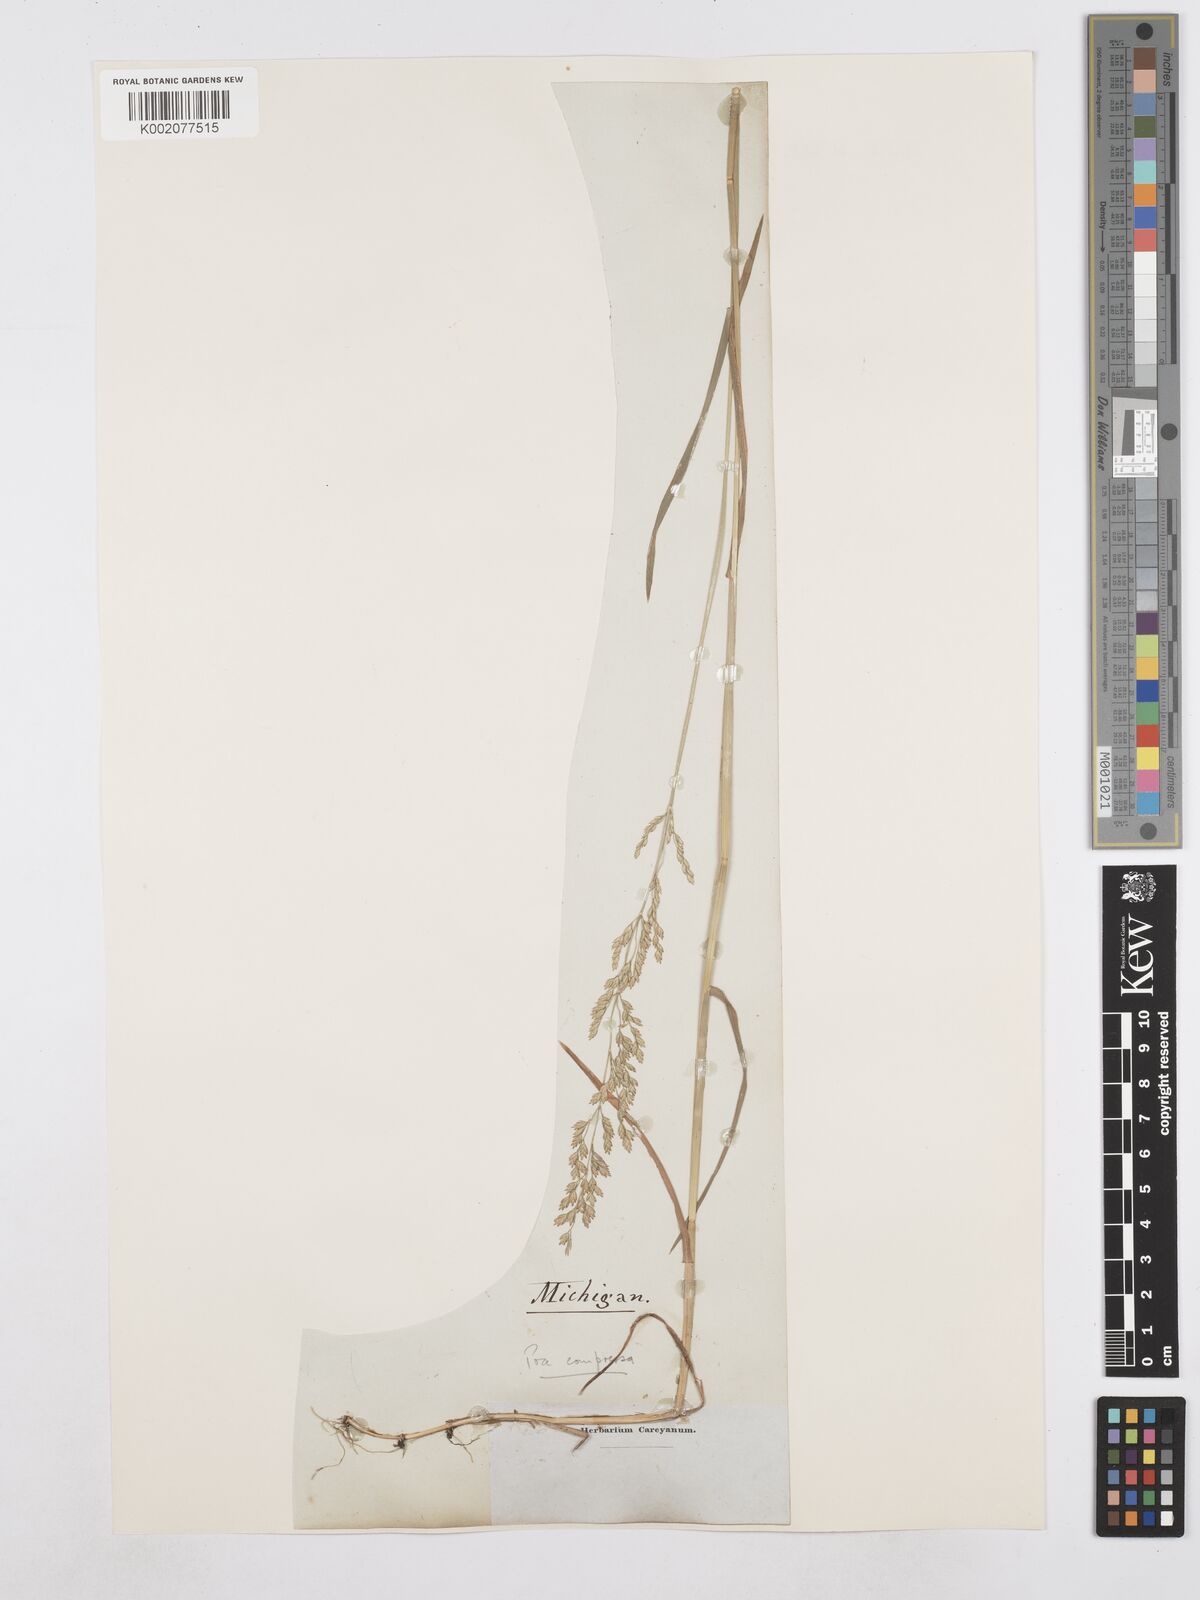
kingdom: Plantae
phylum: Tracheophyta
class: Liliopsida
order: Poales
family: Poaceae
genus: Poa
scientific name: Poa compressa
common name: Canada bluegrass
